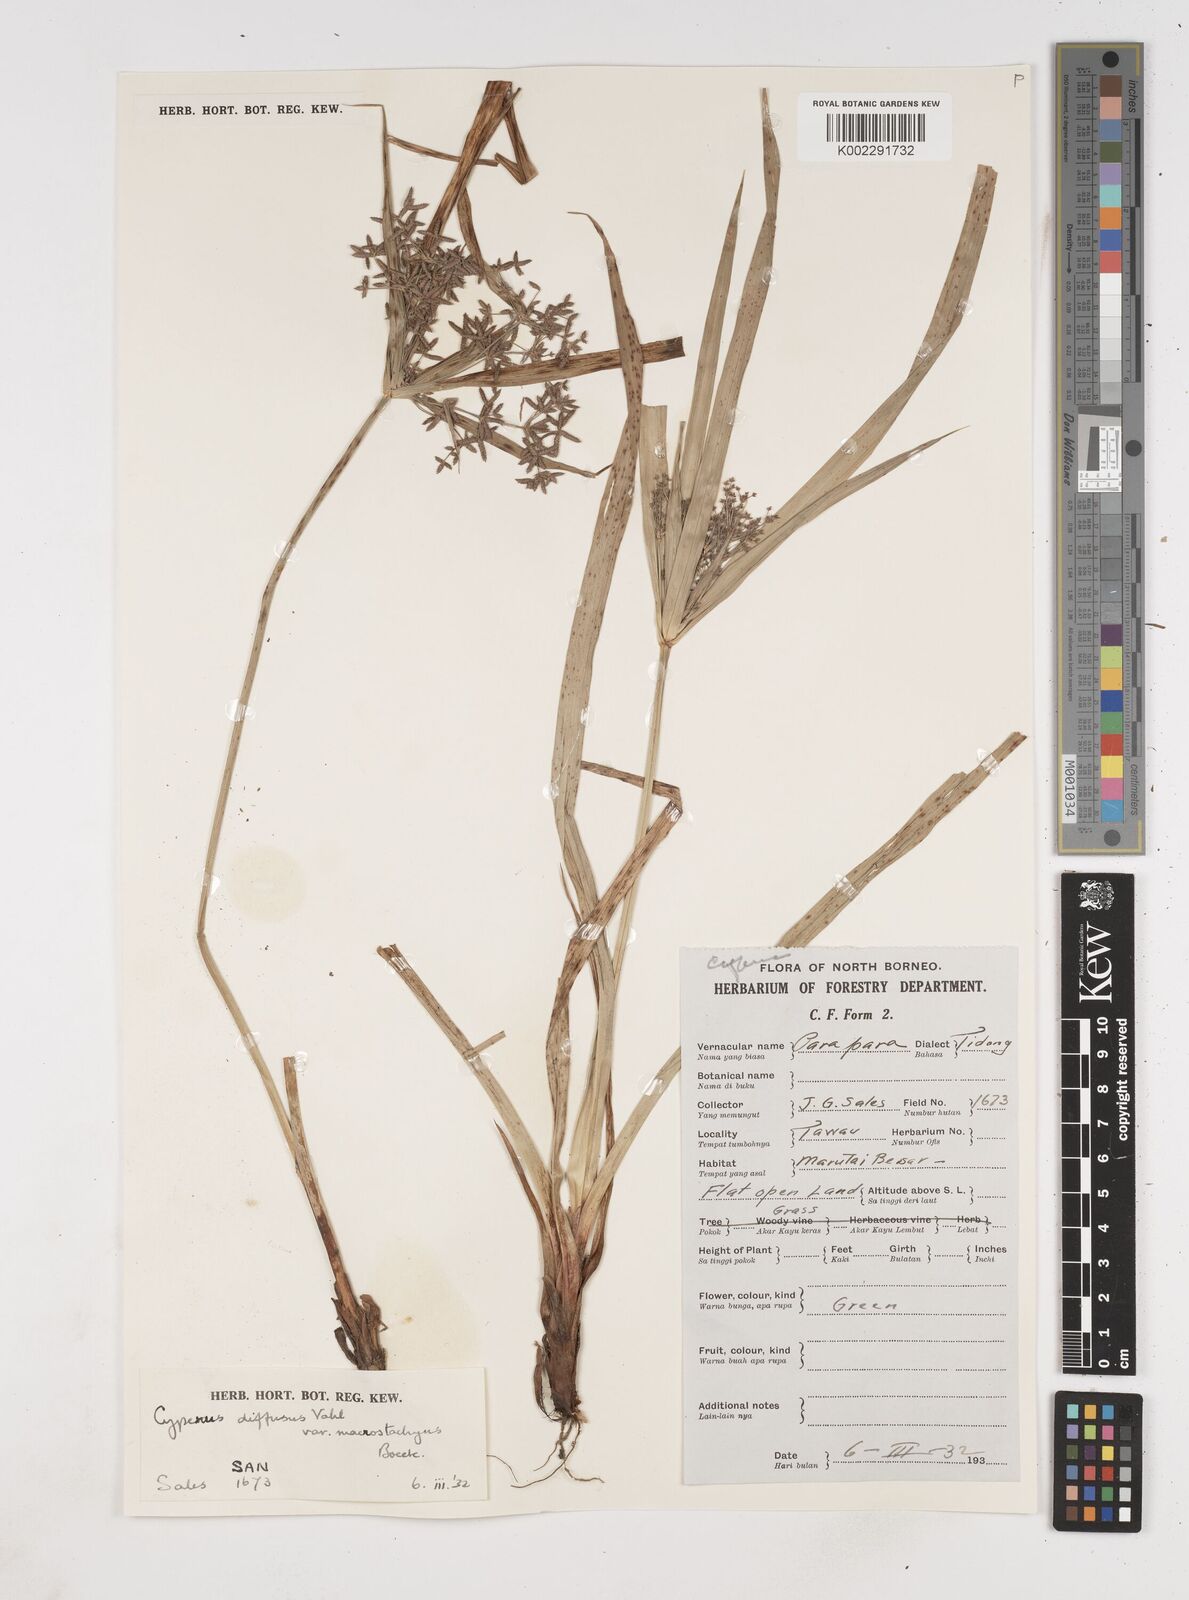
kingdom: Plantae
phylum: Tracheophyta
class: Liliopsida
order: Poales
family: Cyperaceae
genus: Cyperus
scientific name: Cyperus diffusus
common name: Dwarf umbrella grass
